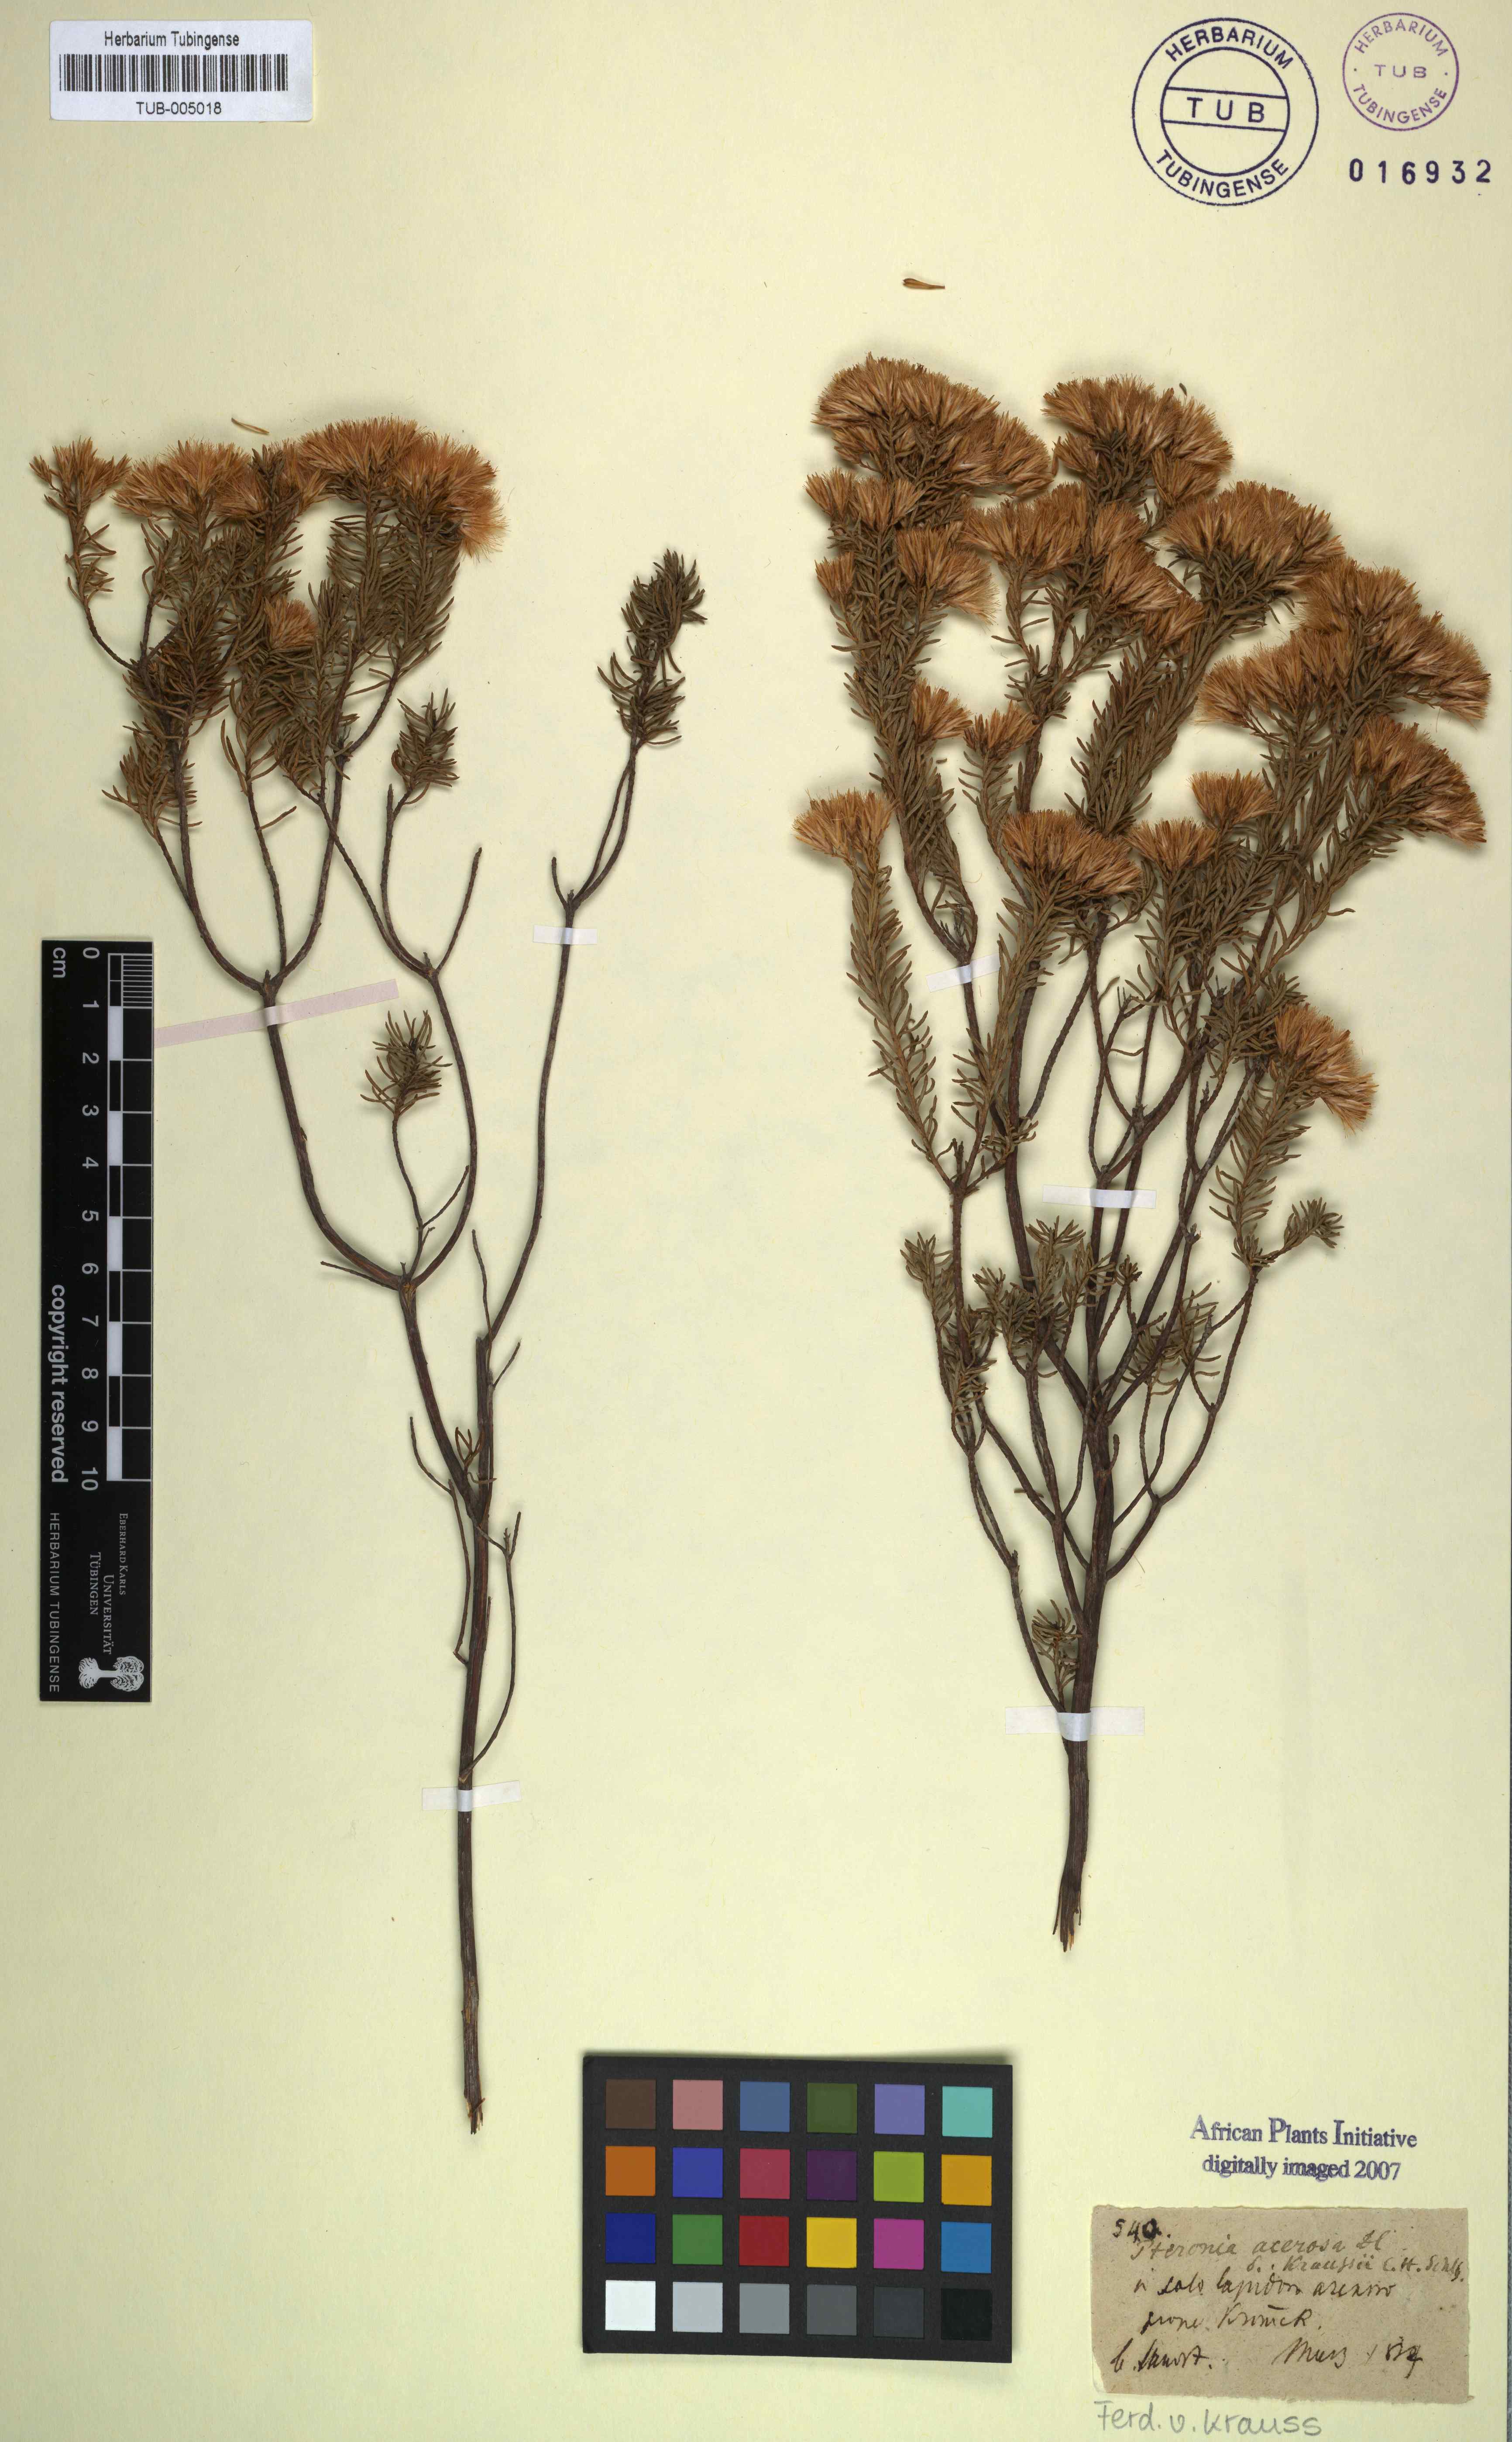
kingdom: Plantae
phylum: Tracheophyta
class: Magnoliopsida
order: Asterales
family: Asteraceae
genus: Pteronia
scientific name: Pteronia teretifolia
